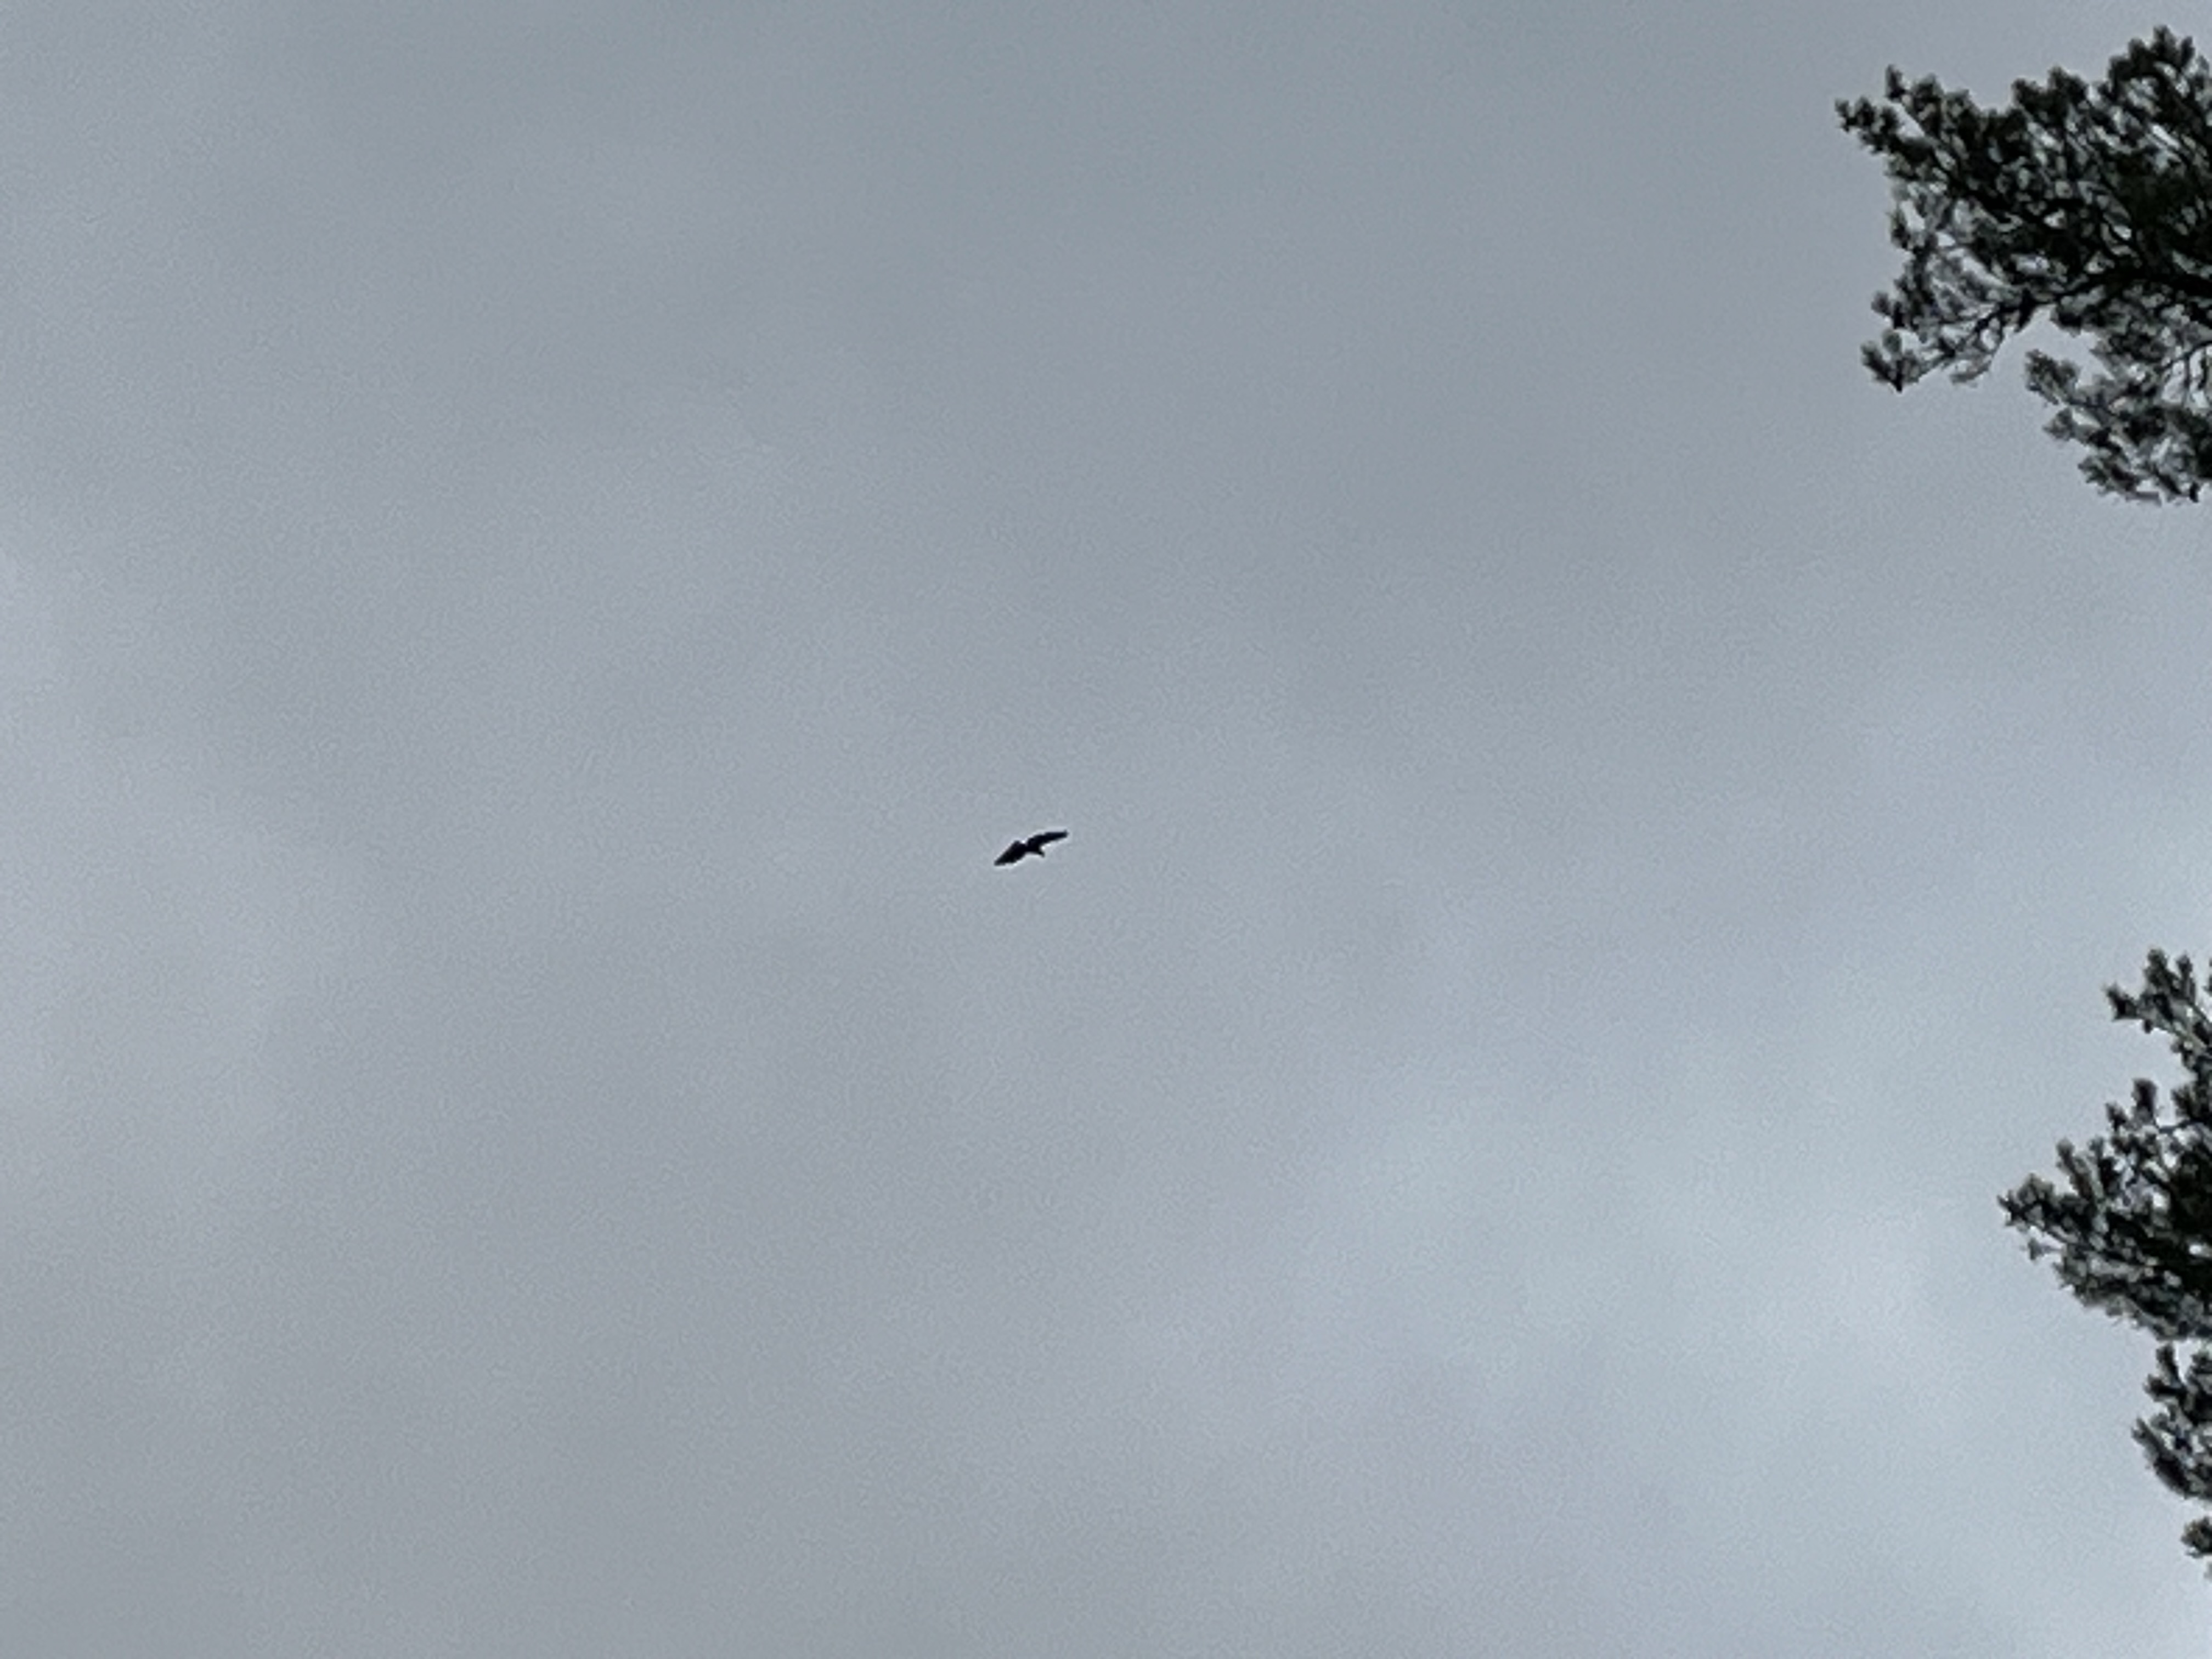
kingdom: Animalia
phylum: Chordata
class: Aves
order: Accipitriformes
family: Accipitridae
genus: Aquila
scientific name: Aquila chrysaetos
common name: Golden eagle
